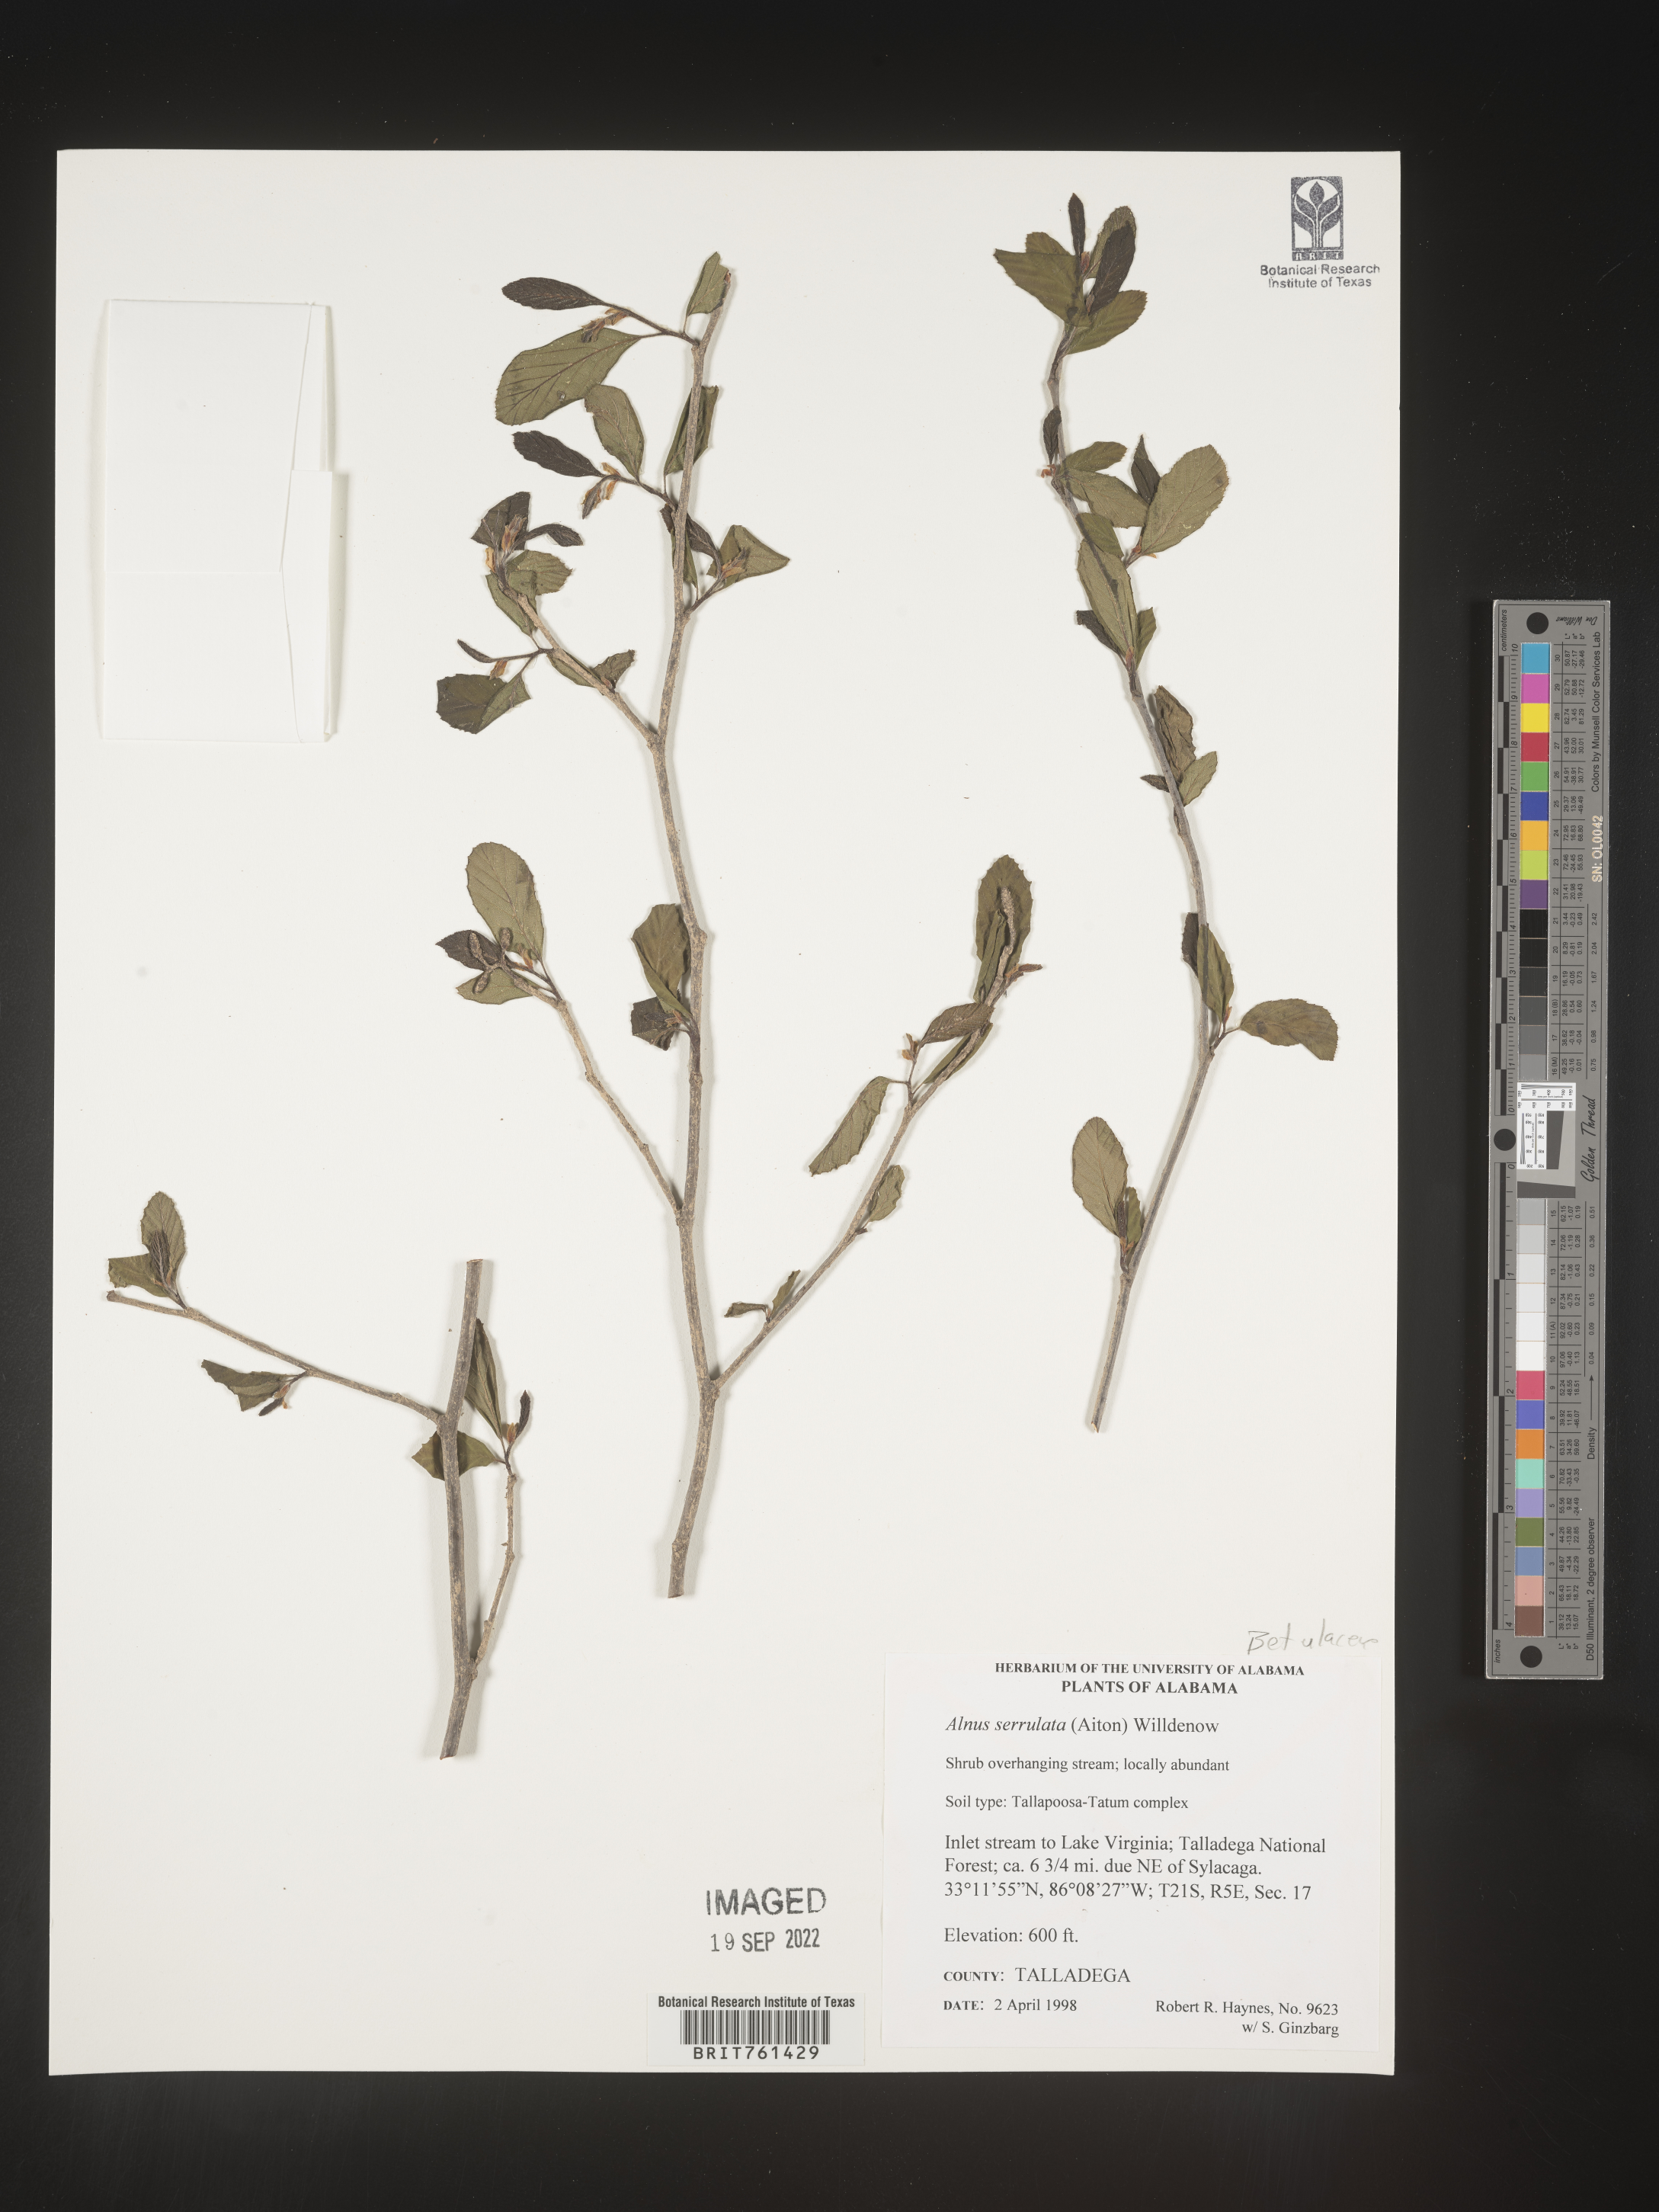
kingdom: Plantae
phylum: Tracheophyta
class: Magnoliopsida
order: Fagales
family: Betulaceae
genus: Alnus
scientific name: Alnus serrulata
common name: Hazel alder
